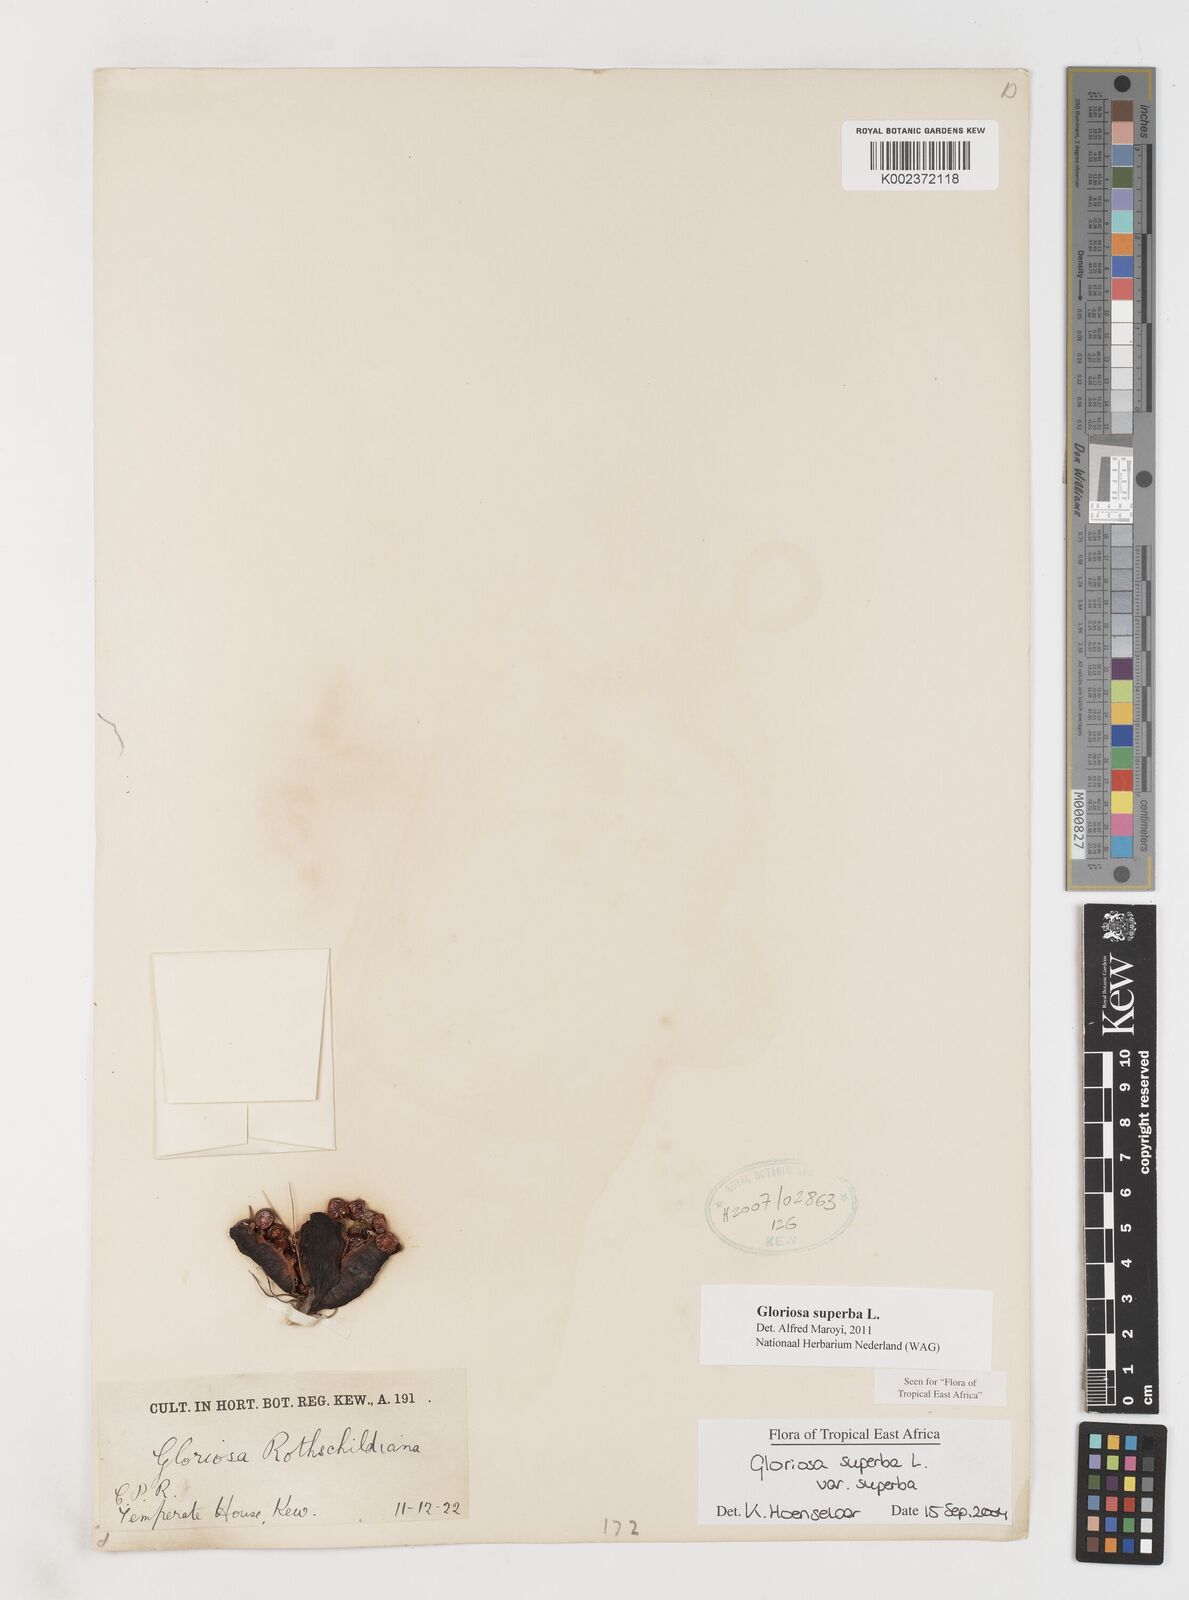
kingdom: Plantae
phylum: Tracheophyta
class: Liliopsida
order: Liliales
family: Colchicaceae
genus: Gloriosa
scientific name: Gloriosa superba
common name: Flame lily
